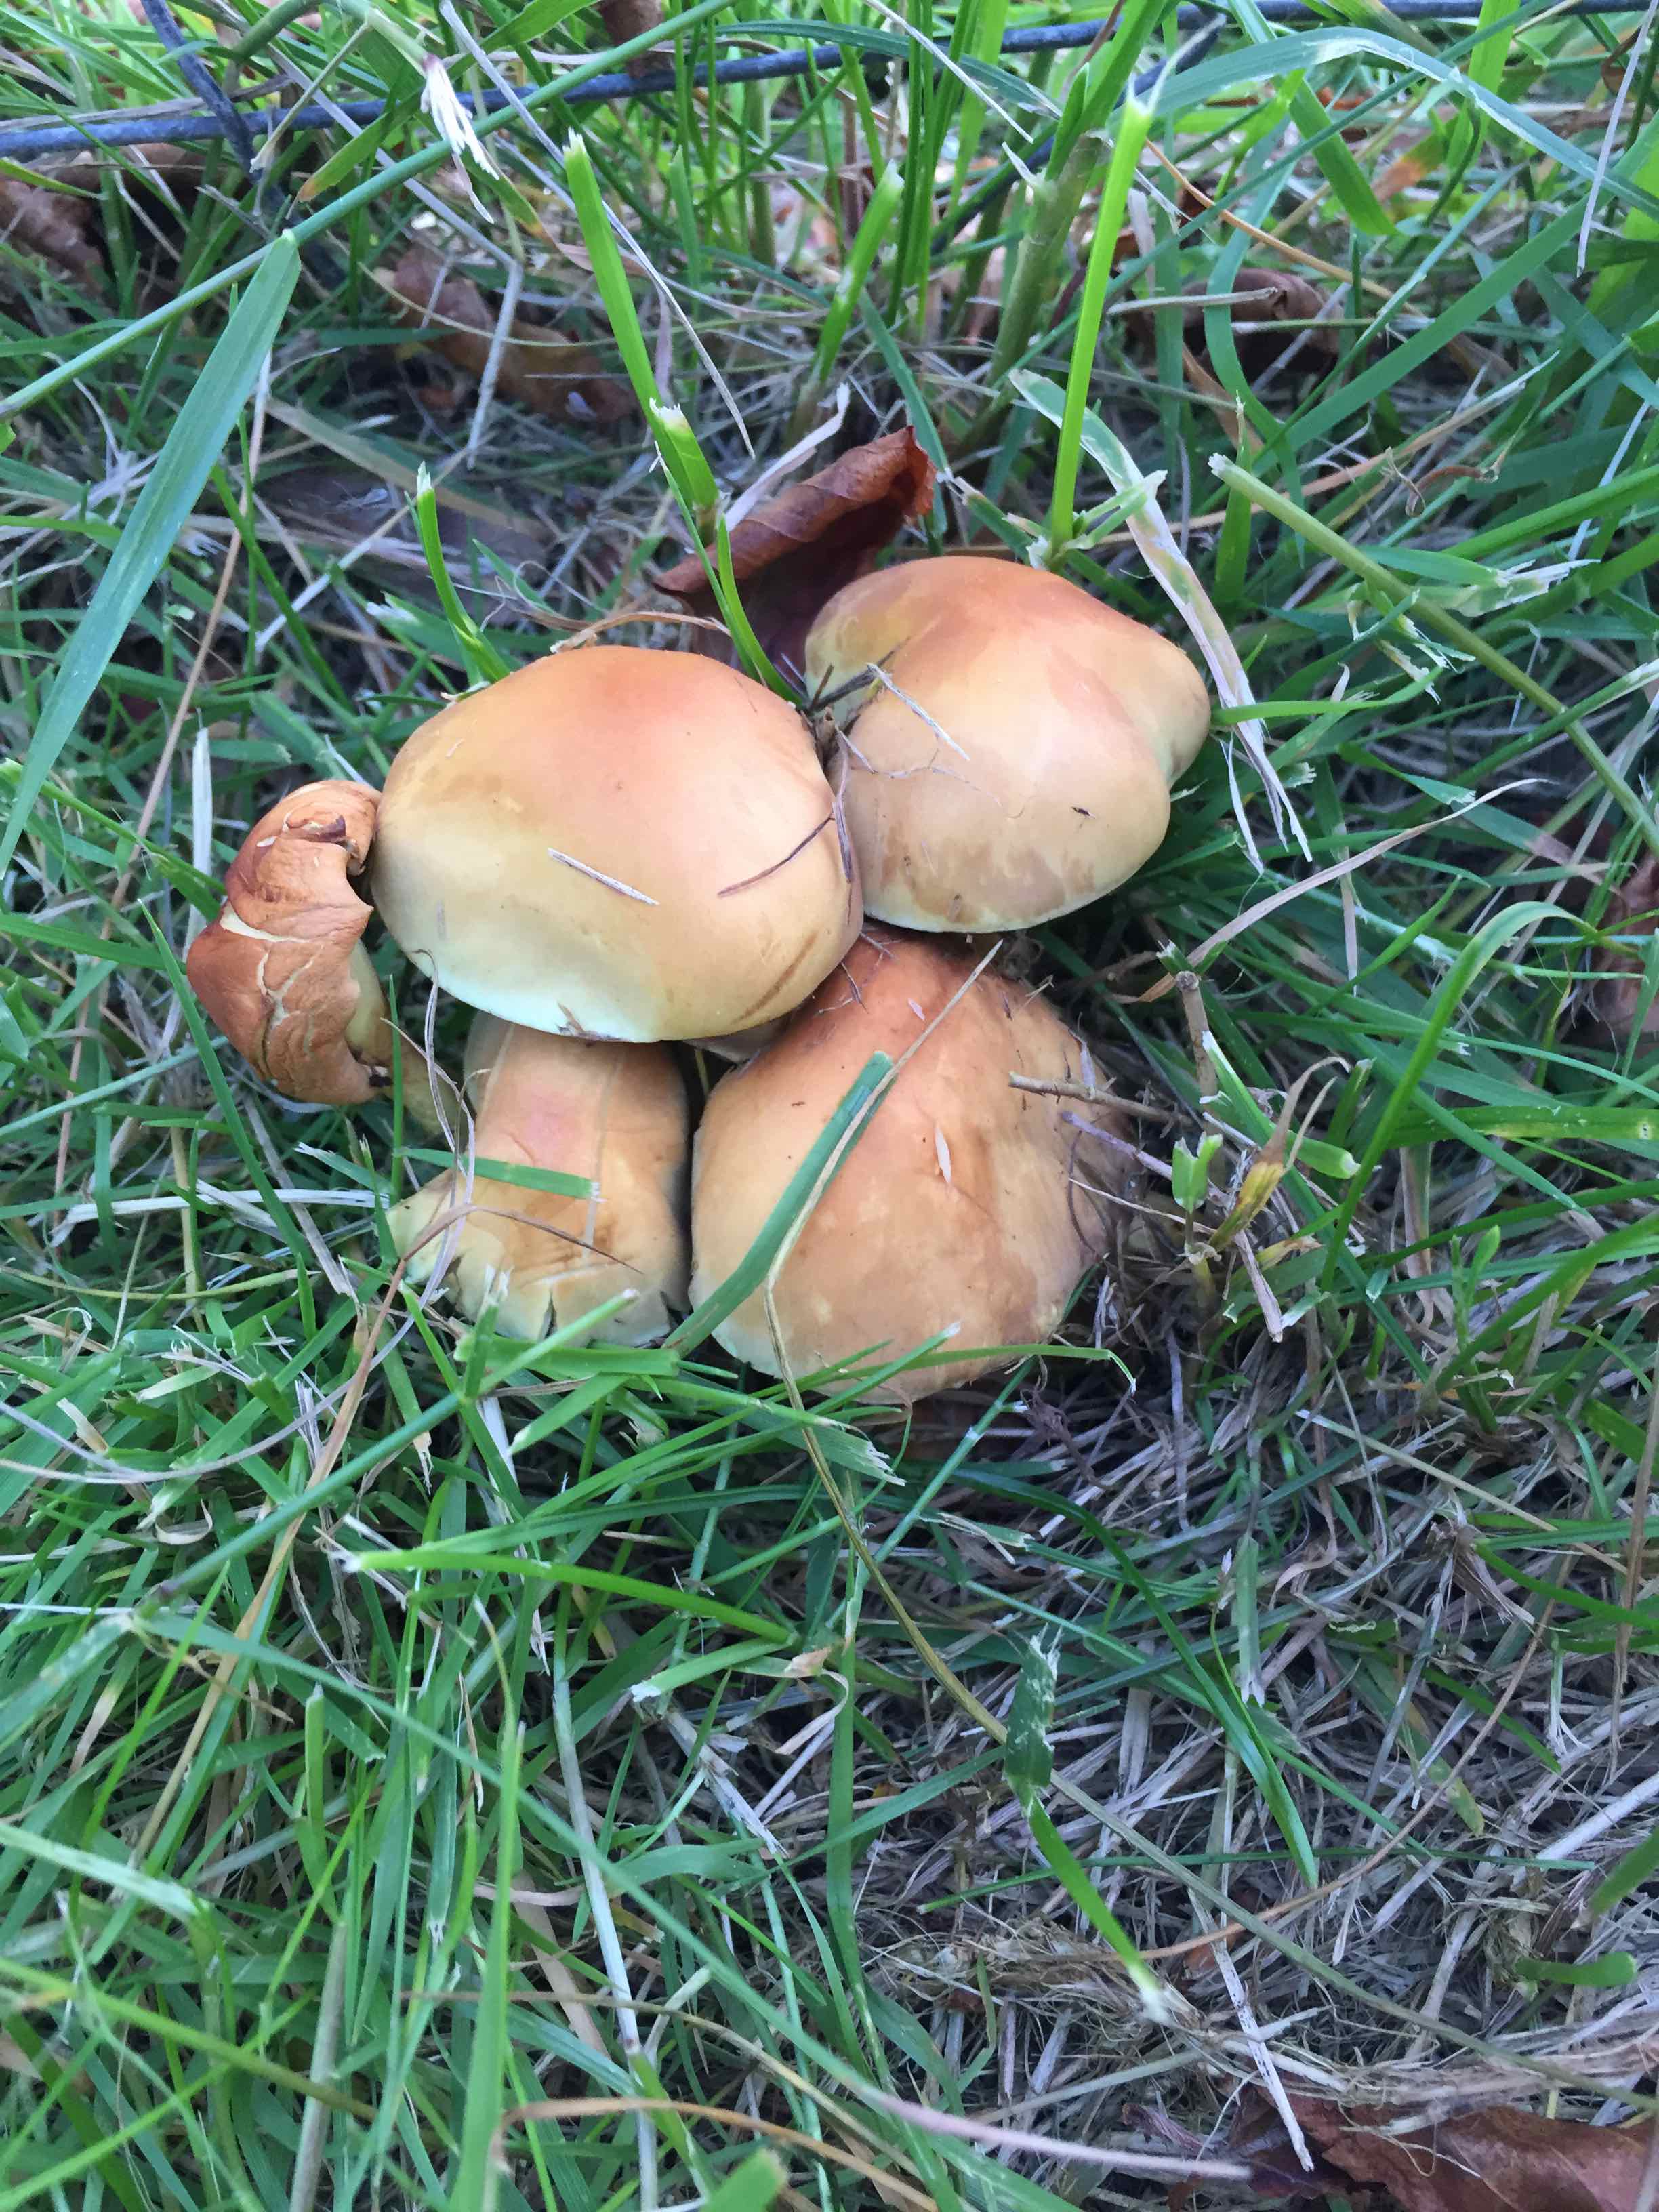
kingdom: Fungi
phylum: Basidiomycota
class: Agaricomycetes
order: Agaricales
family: Strophariaceae
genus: Hypholoma
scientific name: Hypholoma fasciculare
